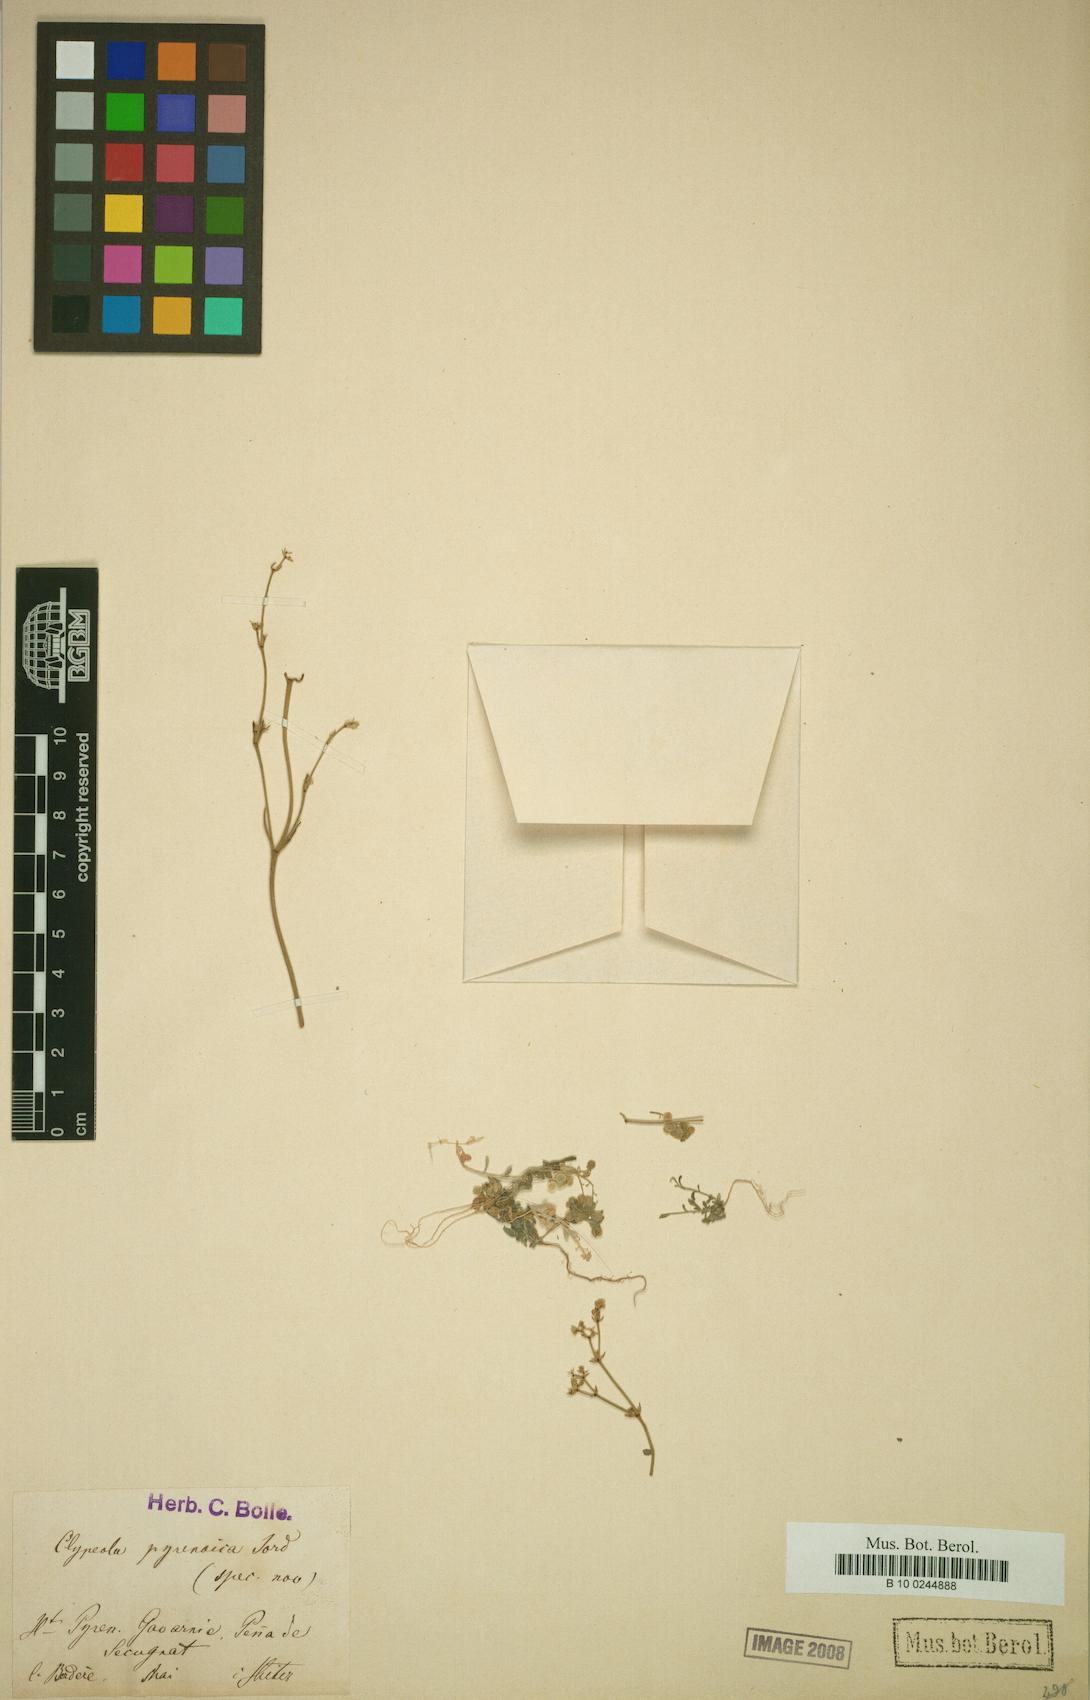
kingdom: Plantae
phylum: Tracheophyta
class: Magnoliopsida
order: Brassicales
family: Brassicaceae
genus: Clypeola
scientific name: Clypeola jonthlaspi
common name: Disk cress
